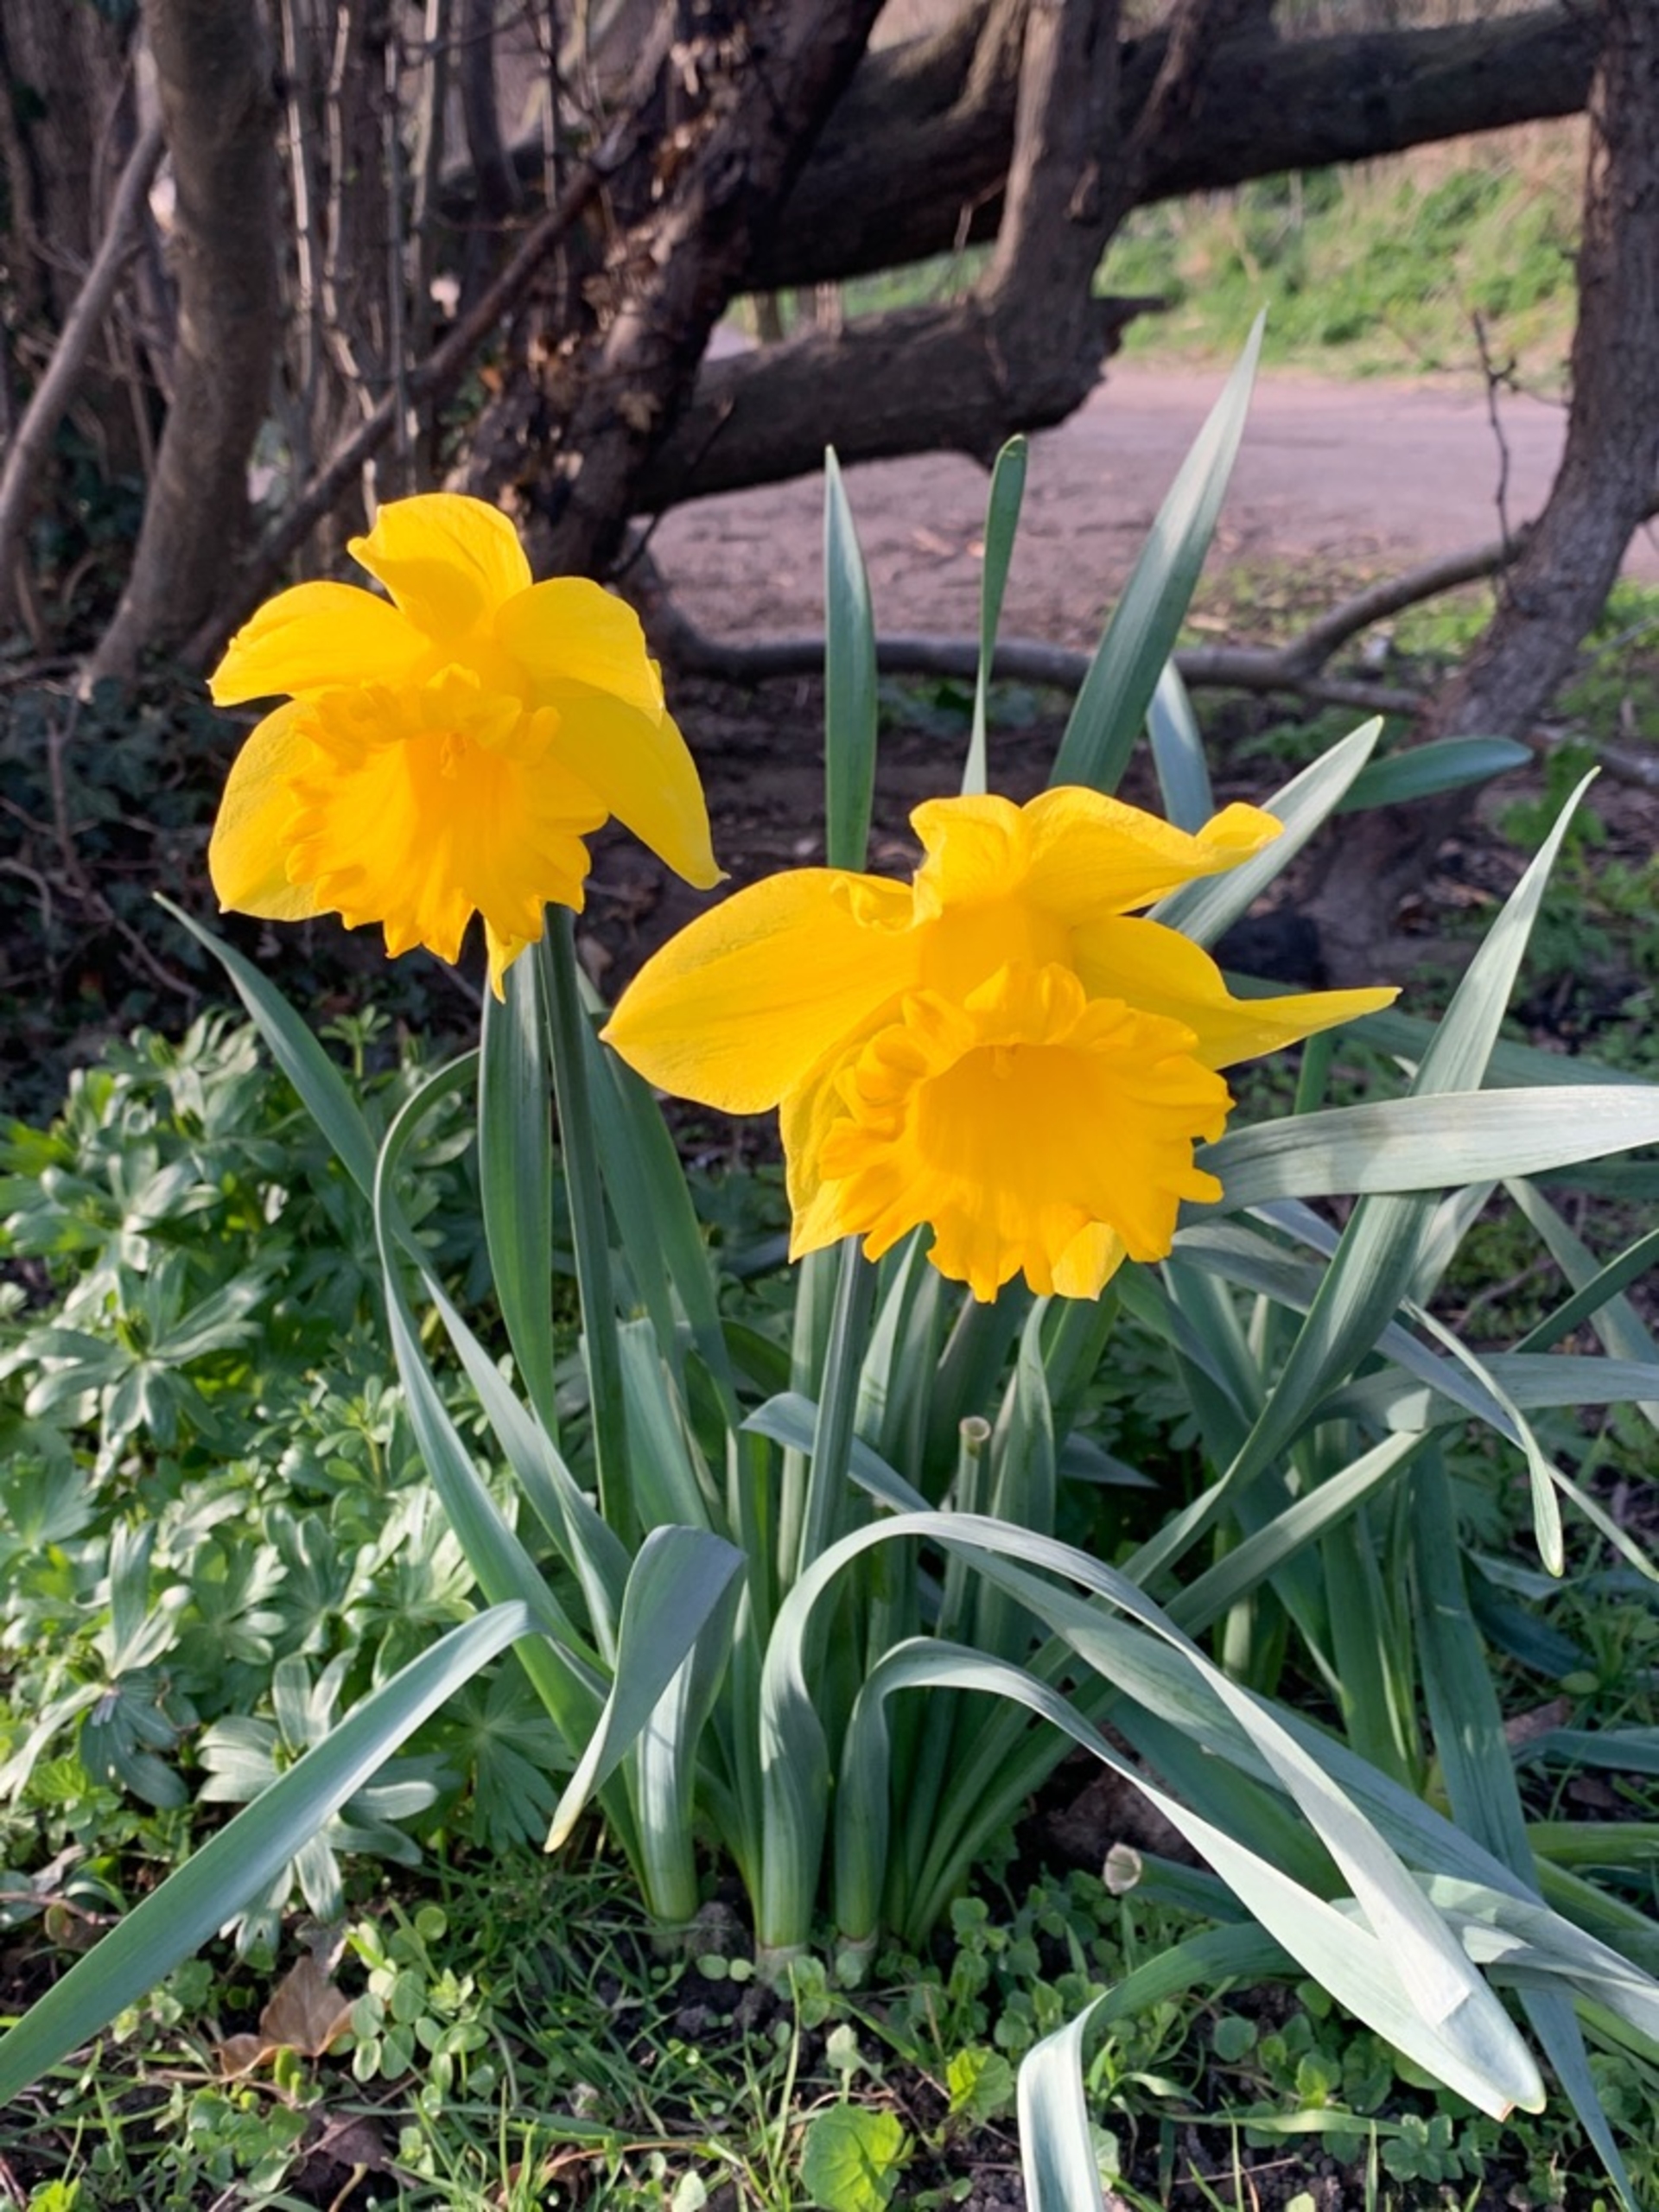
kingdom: Plantae
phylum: Tracheophyta
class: Liliopsida
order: Asparagales
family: Amaryllidaceae
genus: Narcissus
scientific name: Narcissus pseudonarcissus
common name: Påskelilje
